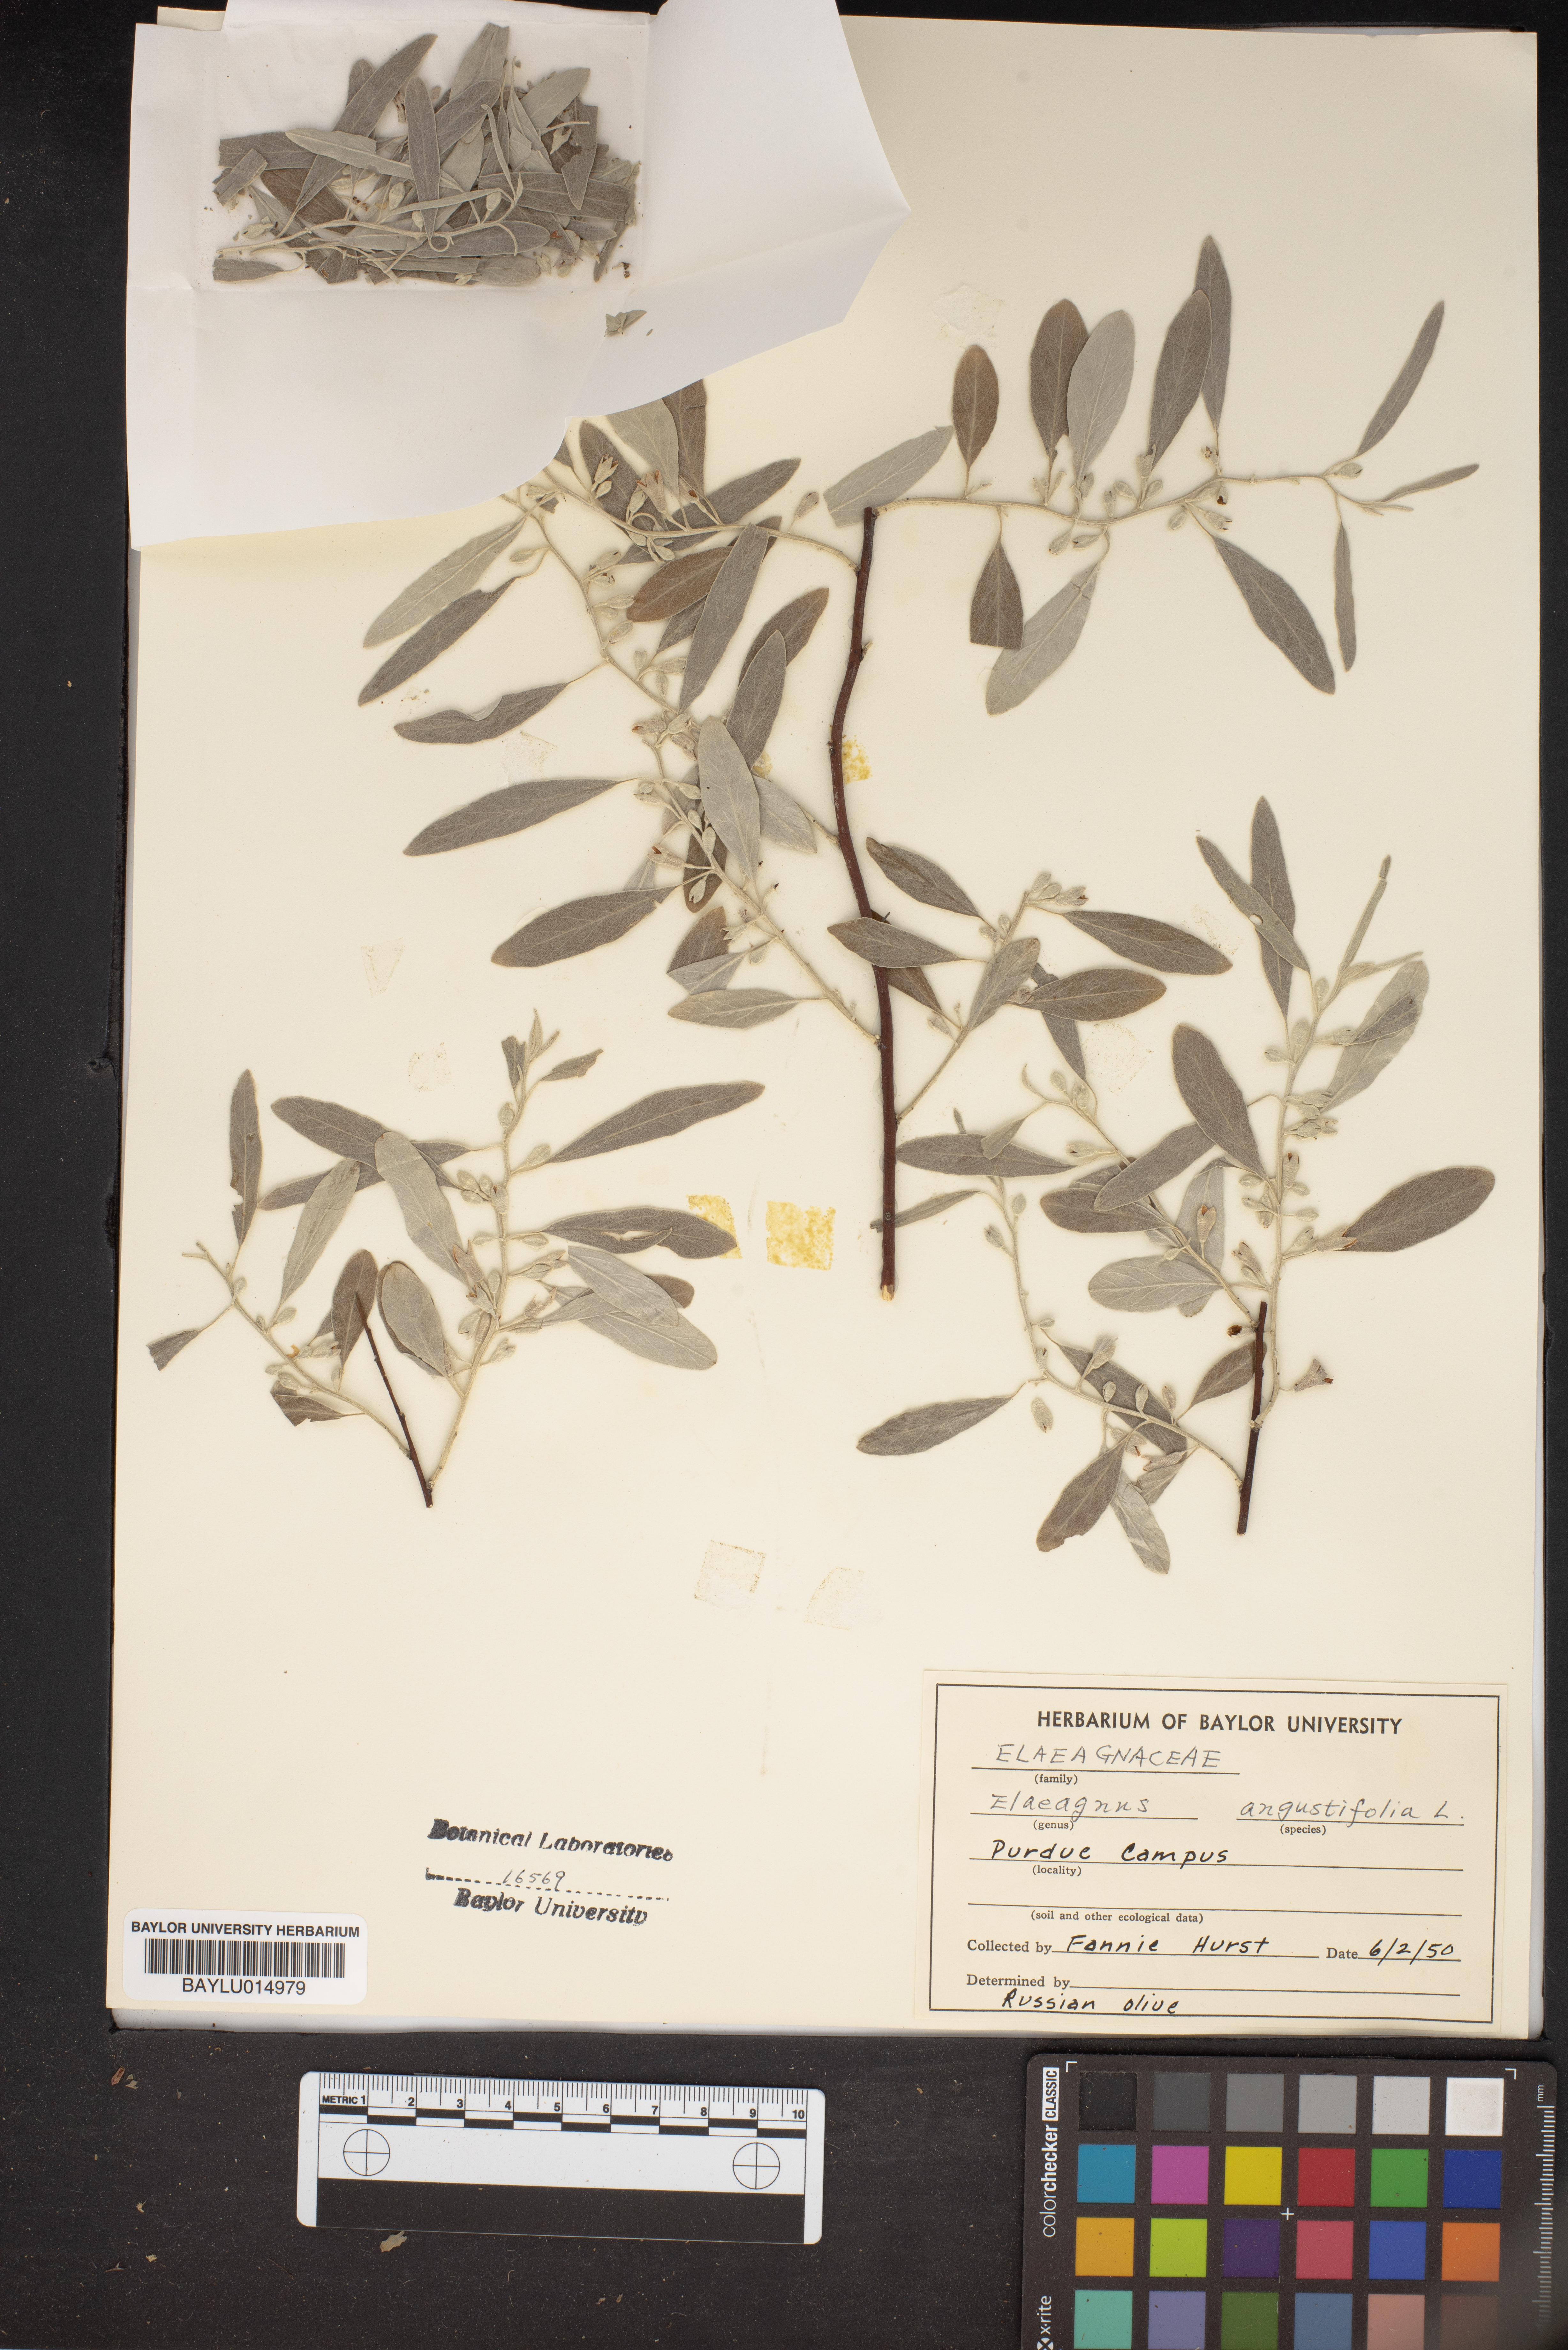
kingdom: Plantae
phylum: Tracheophyta
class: Magnoliopsida
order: Rosales
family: Elaeagnaceae
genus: Elaeagnus
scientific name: Elaeagnus angustifolia
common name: Russian olive
